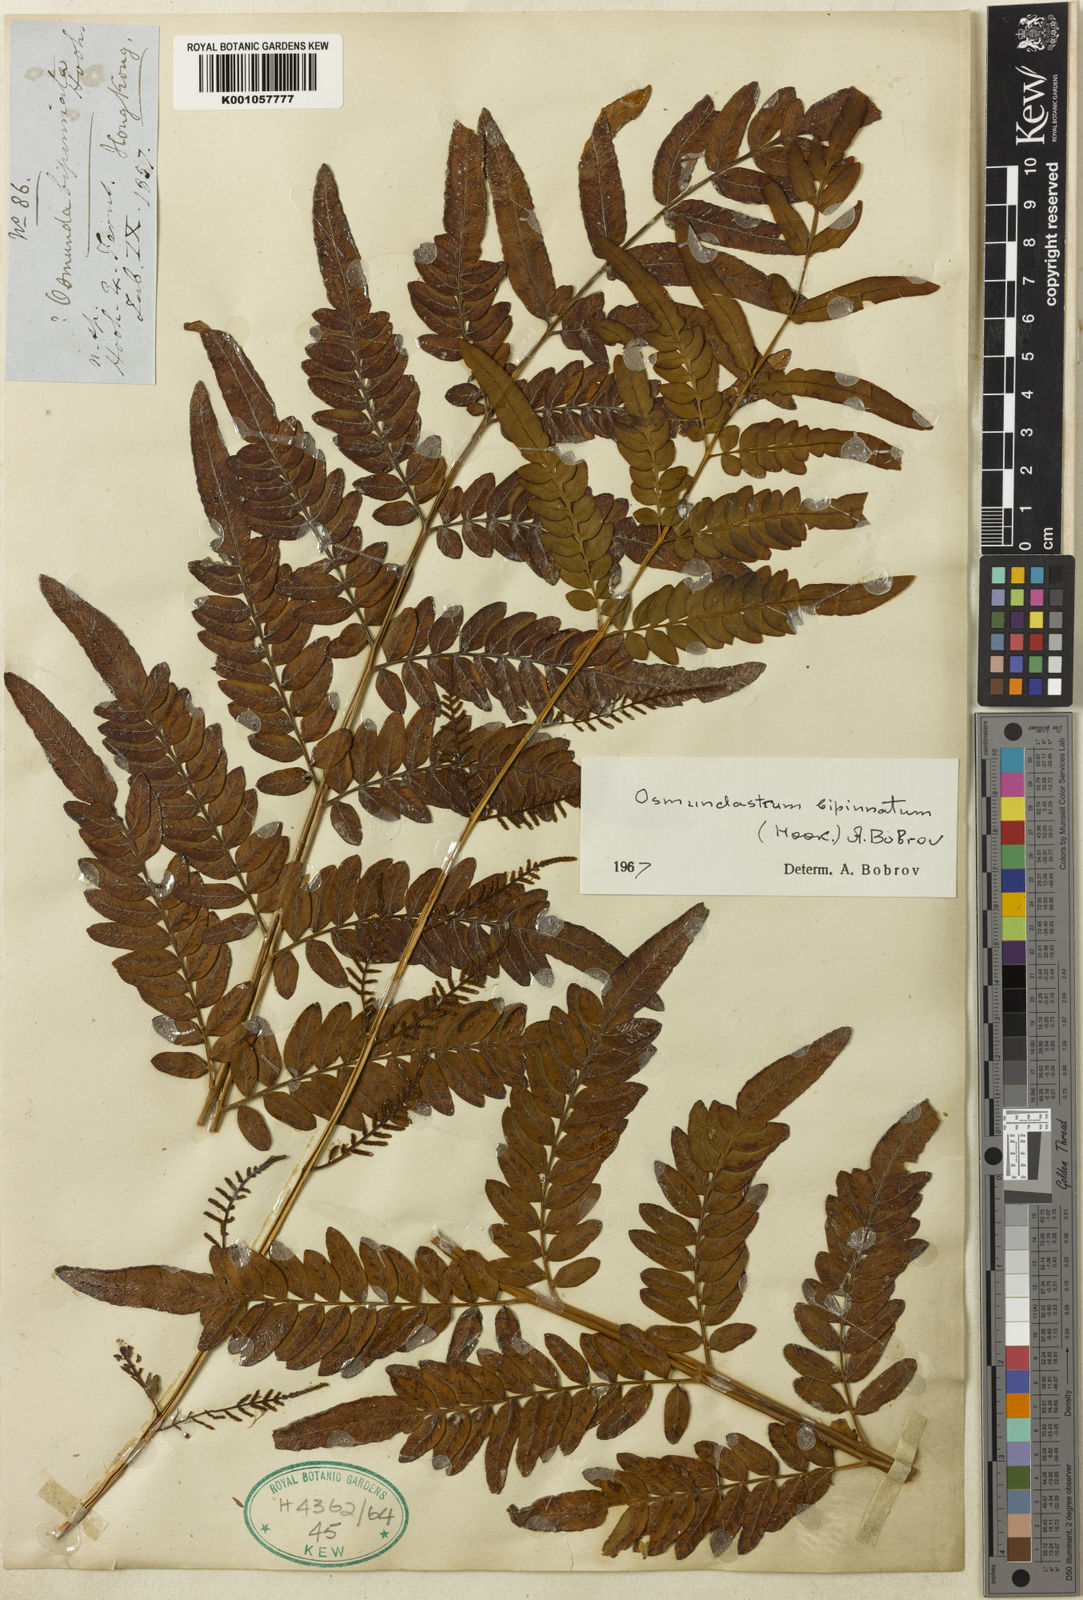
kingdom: Plantae
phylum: Tracheophyta
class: Polypodiopsida
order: Osmundales
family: Osmundaceae
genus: Osmunasium
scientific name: Osmunasium mildei
